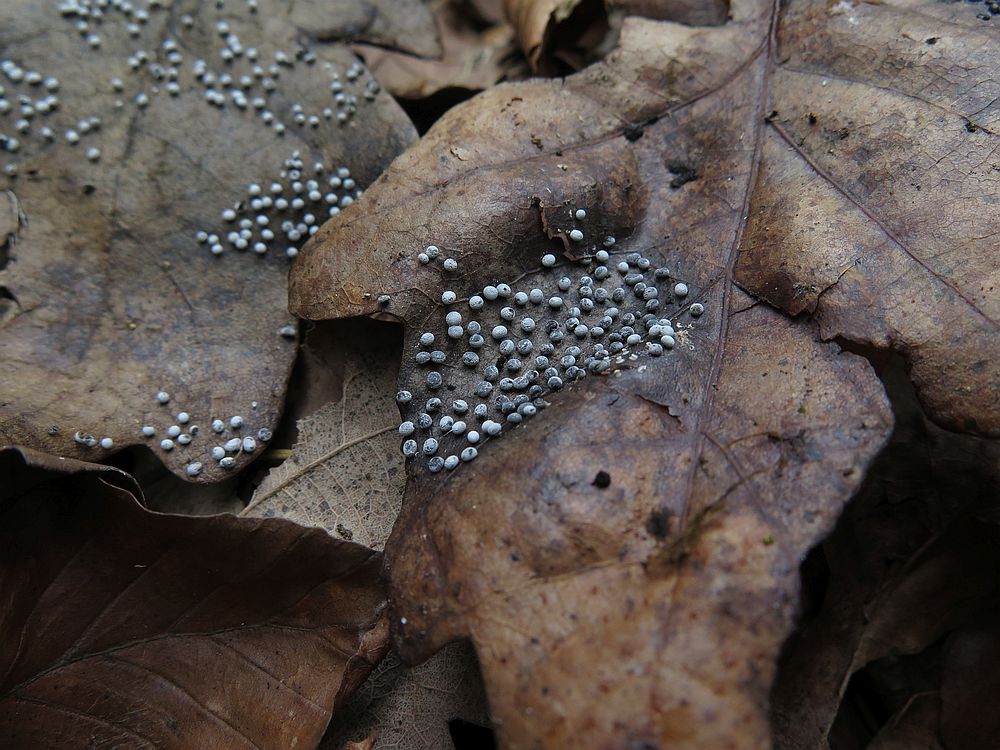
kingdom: Protozoa
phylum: Mycetozoa
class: Myxomycetes
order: Physarales
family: Didymiaceae
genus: Didymium
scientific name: Didymium squamulosum
